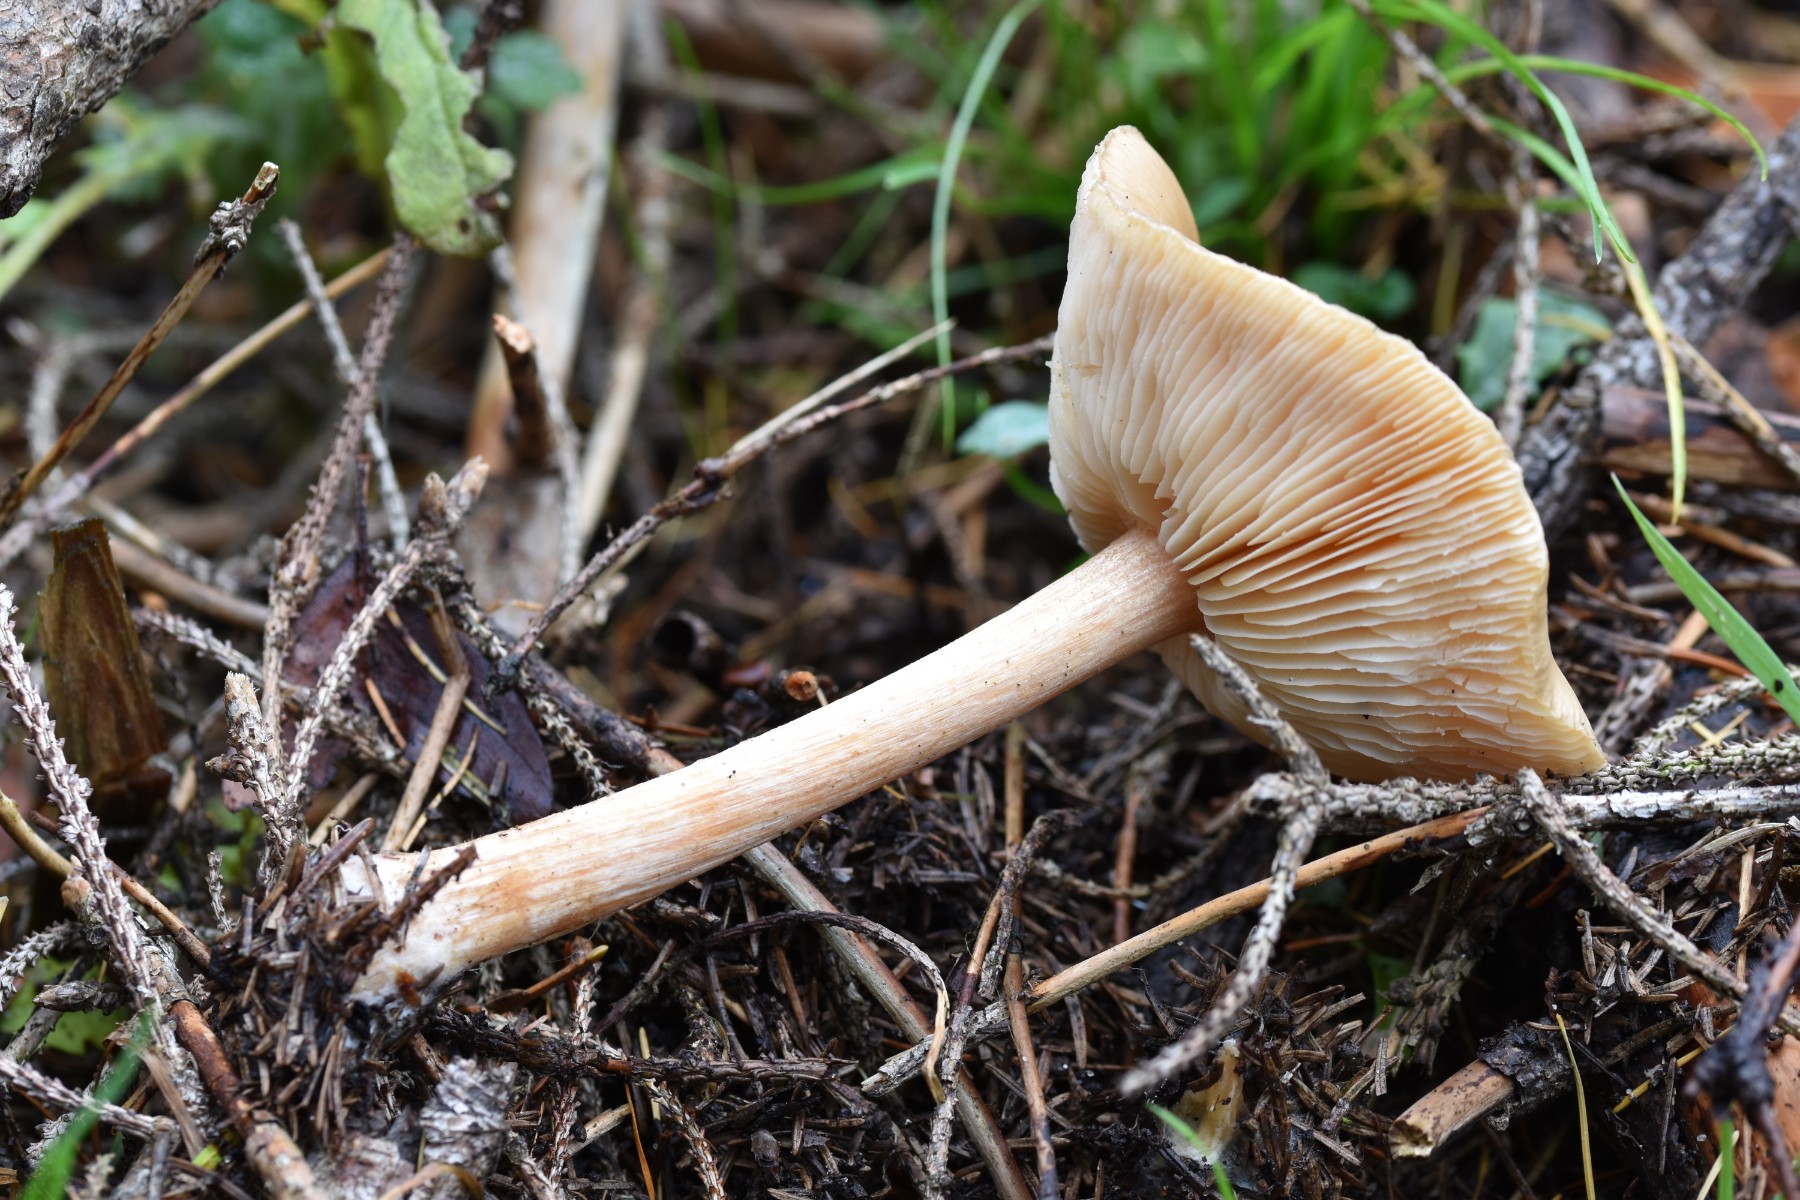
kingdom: Fungi
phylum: Basidiomycota
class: Agaricomycetes
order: Agaricales
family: Tricholomataceae
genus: Melanoleuca
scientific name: Melanoleuca cognata
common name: gyldengrå munkehat
